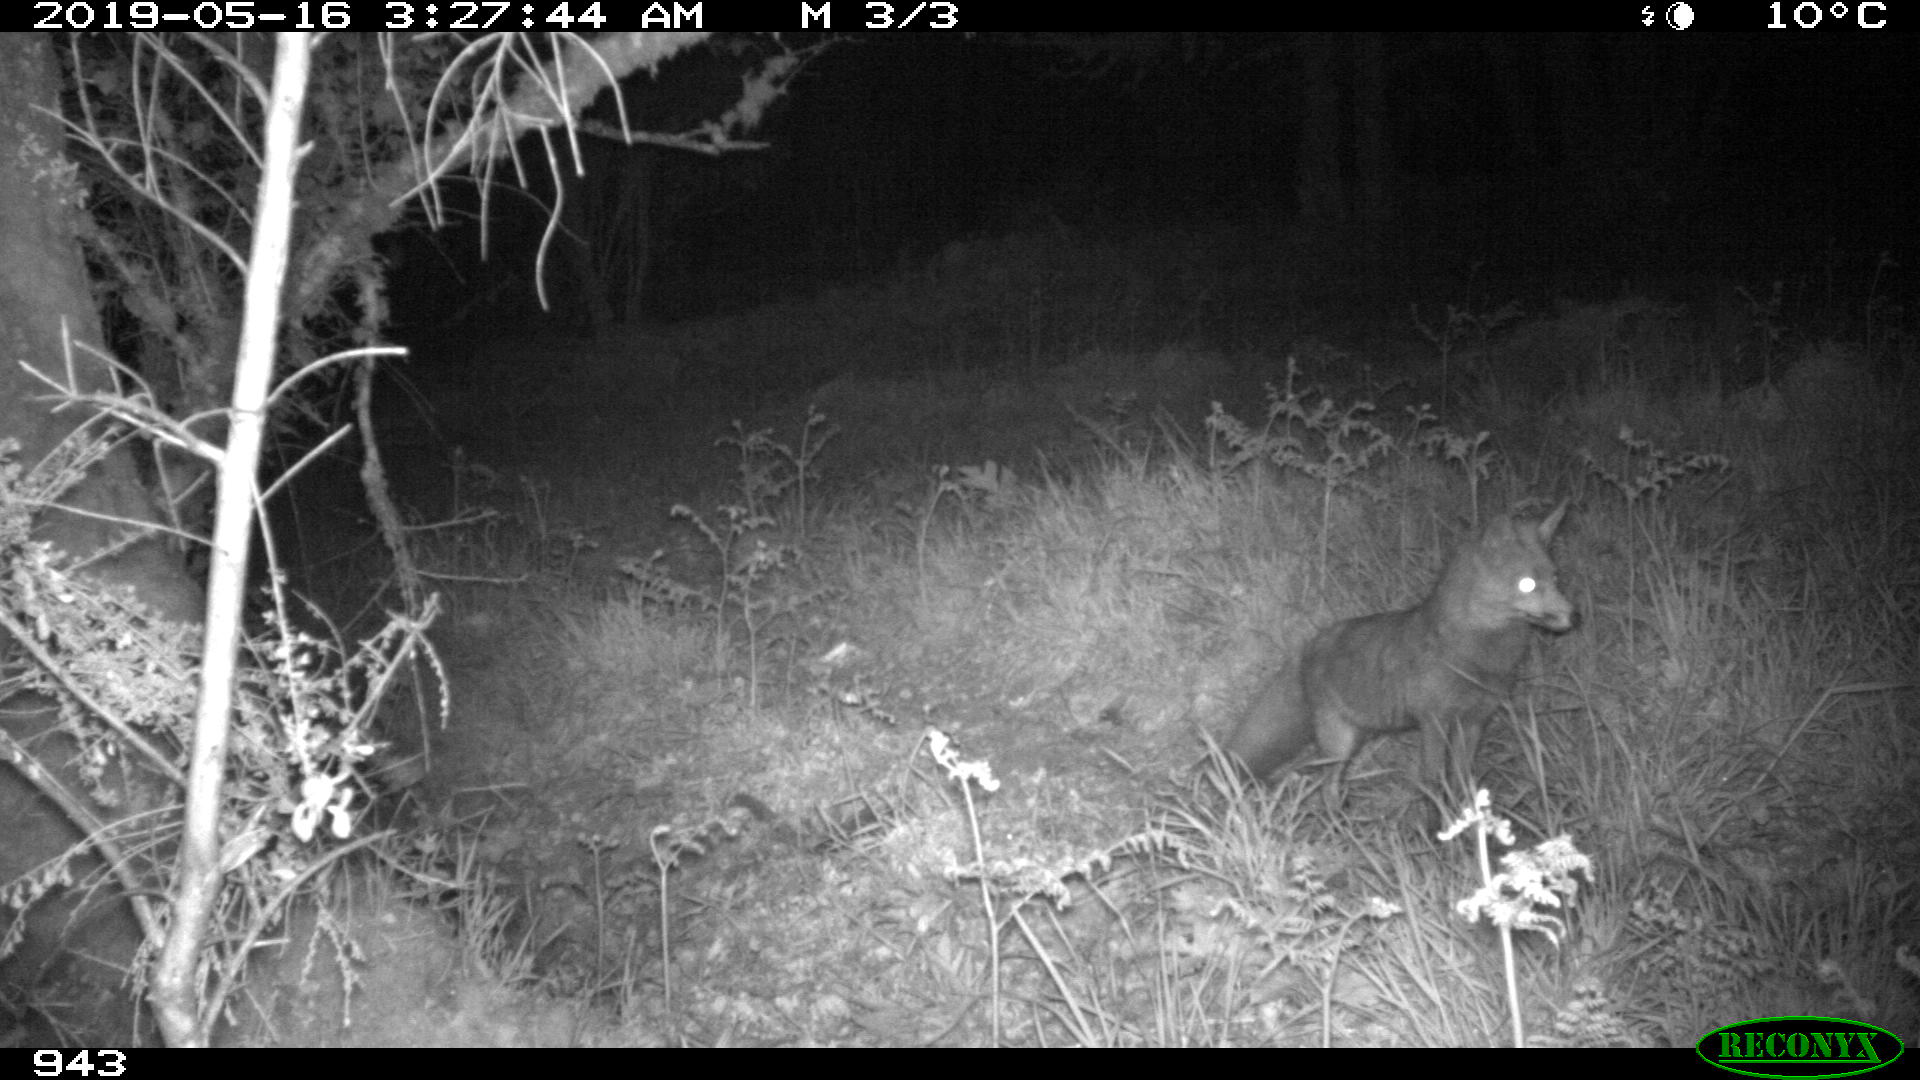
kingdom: Animalia
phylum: Chordata
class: Mammalia
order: Carnivora
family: Canidae
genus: Vulpes
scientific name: Vulpes vulpes
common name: Red fox
